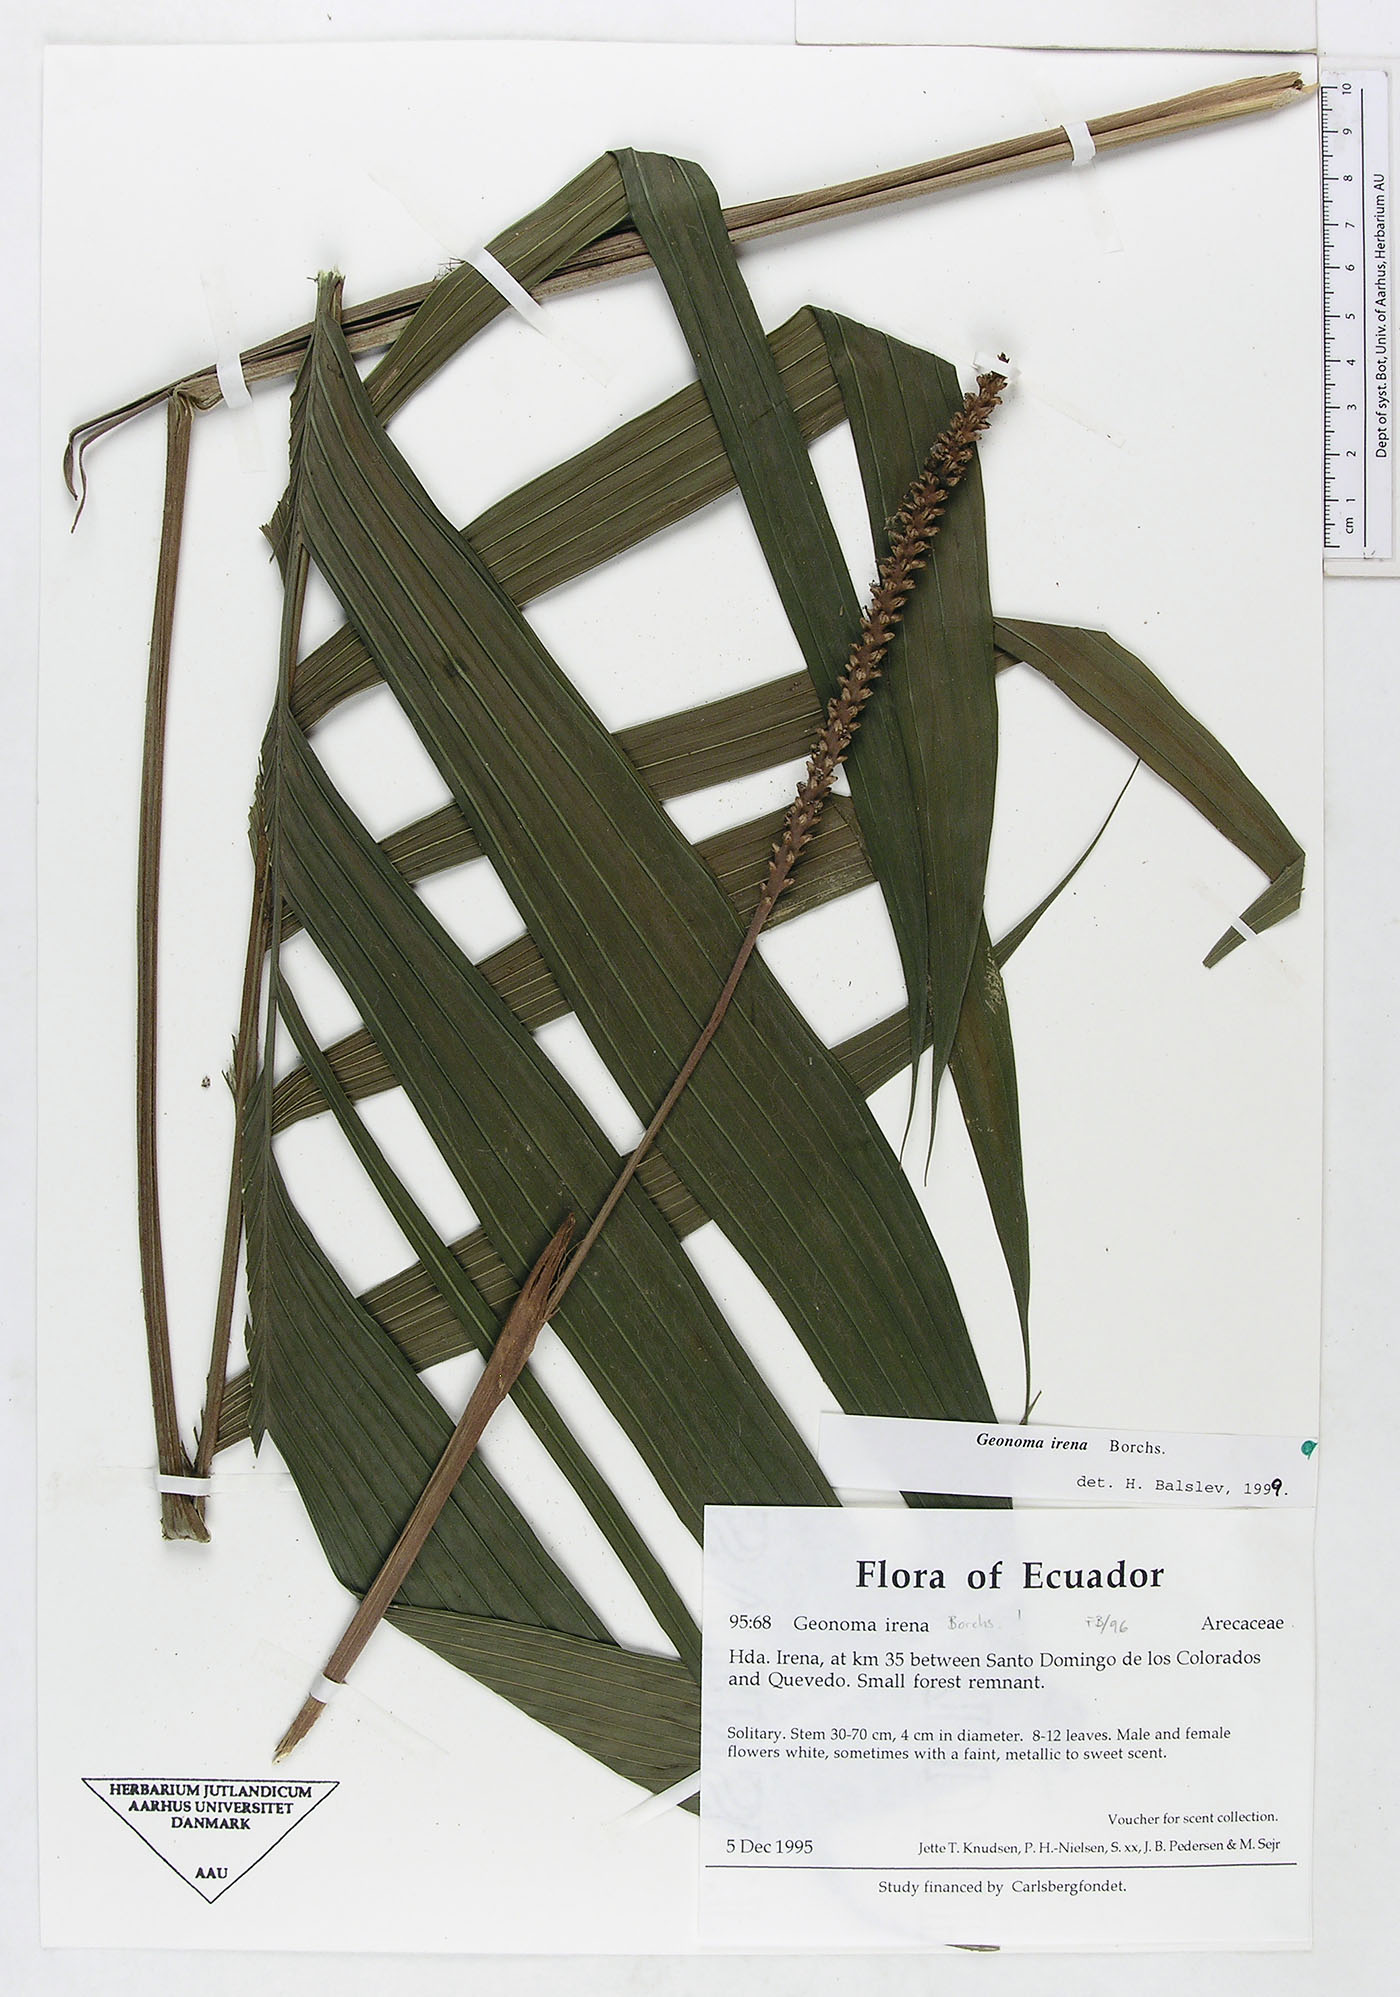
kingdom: Plantae
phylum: Tracheophyta
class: Liliopsida
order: Arecales
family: Arecaceae
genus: Geonoma
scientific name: Geonoma cuneata
